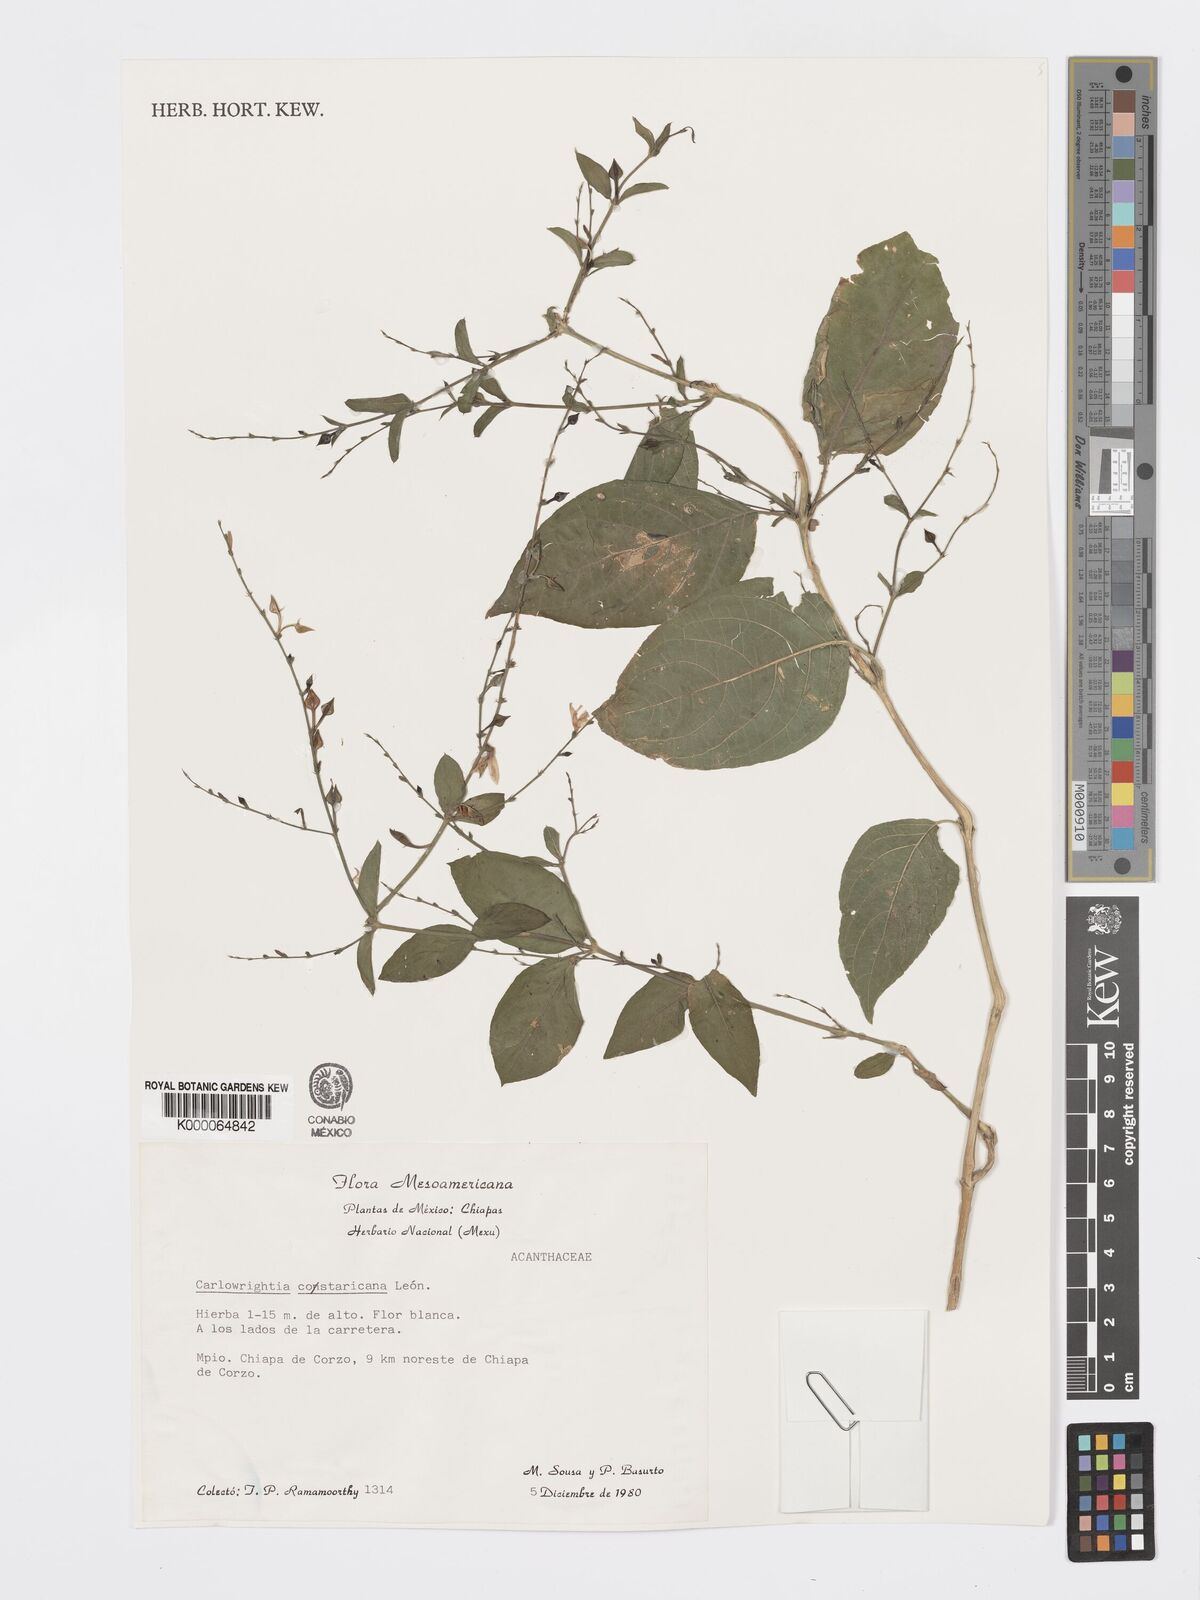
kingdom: Plantae
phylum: Tracheophyta
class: Magnoliopsida
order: Lamiales
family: Acanthaceae
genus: Carlowrightia
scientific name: Carlowrightia arizonica
